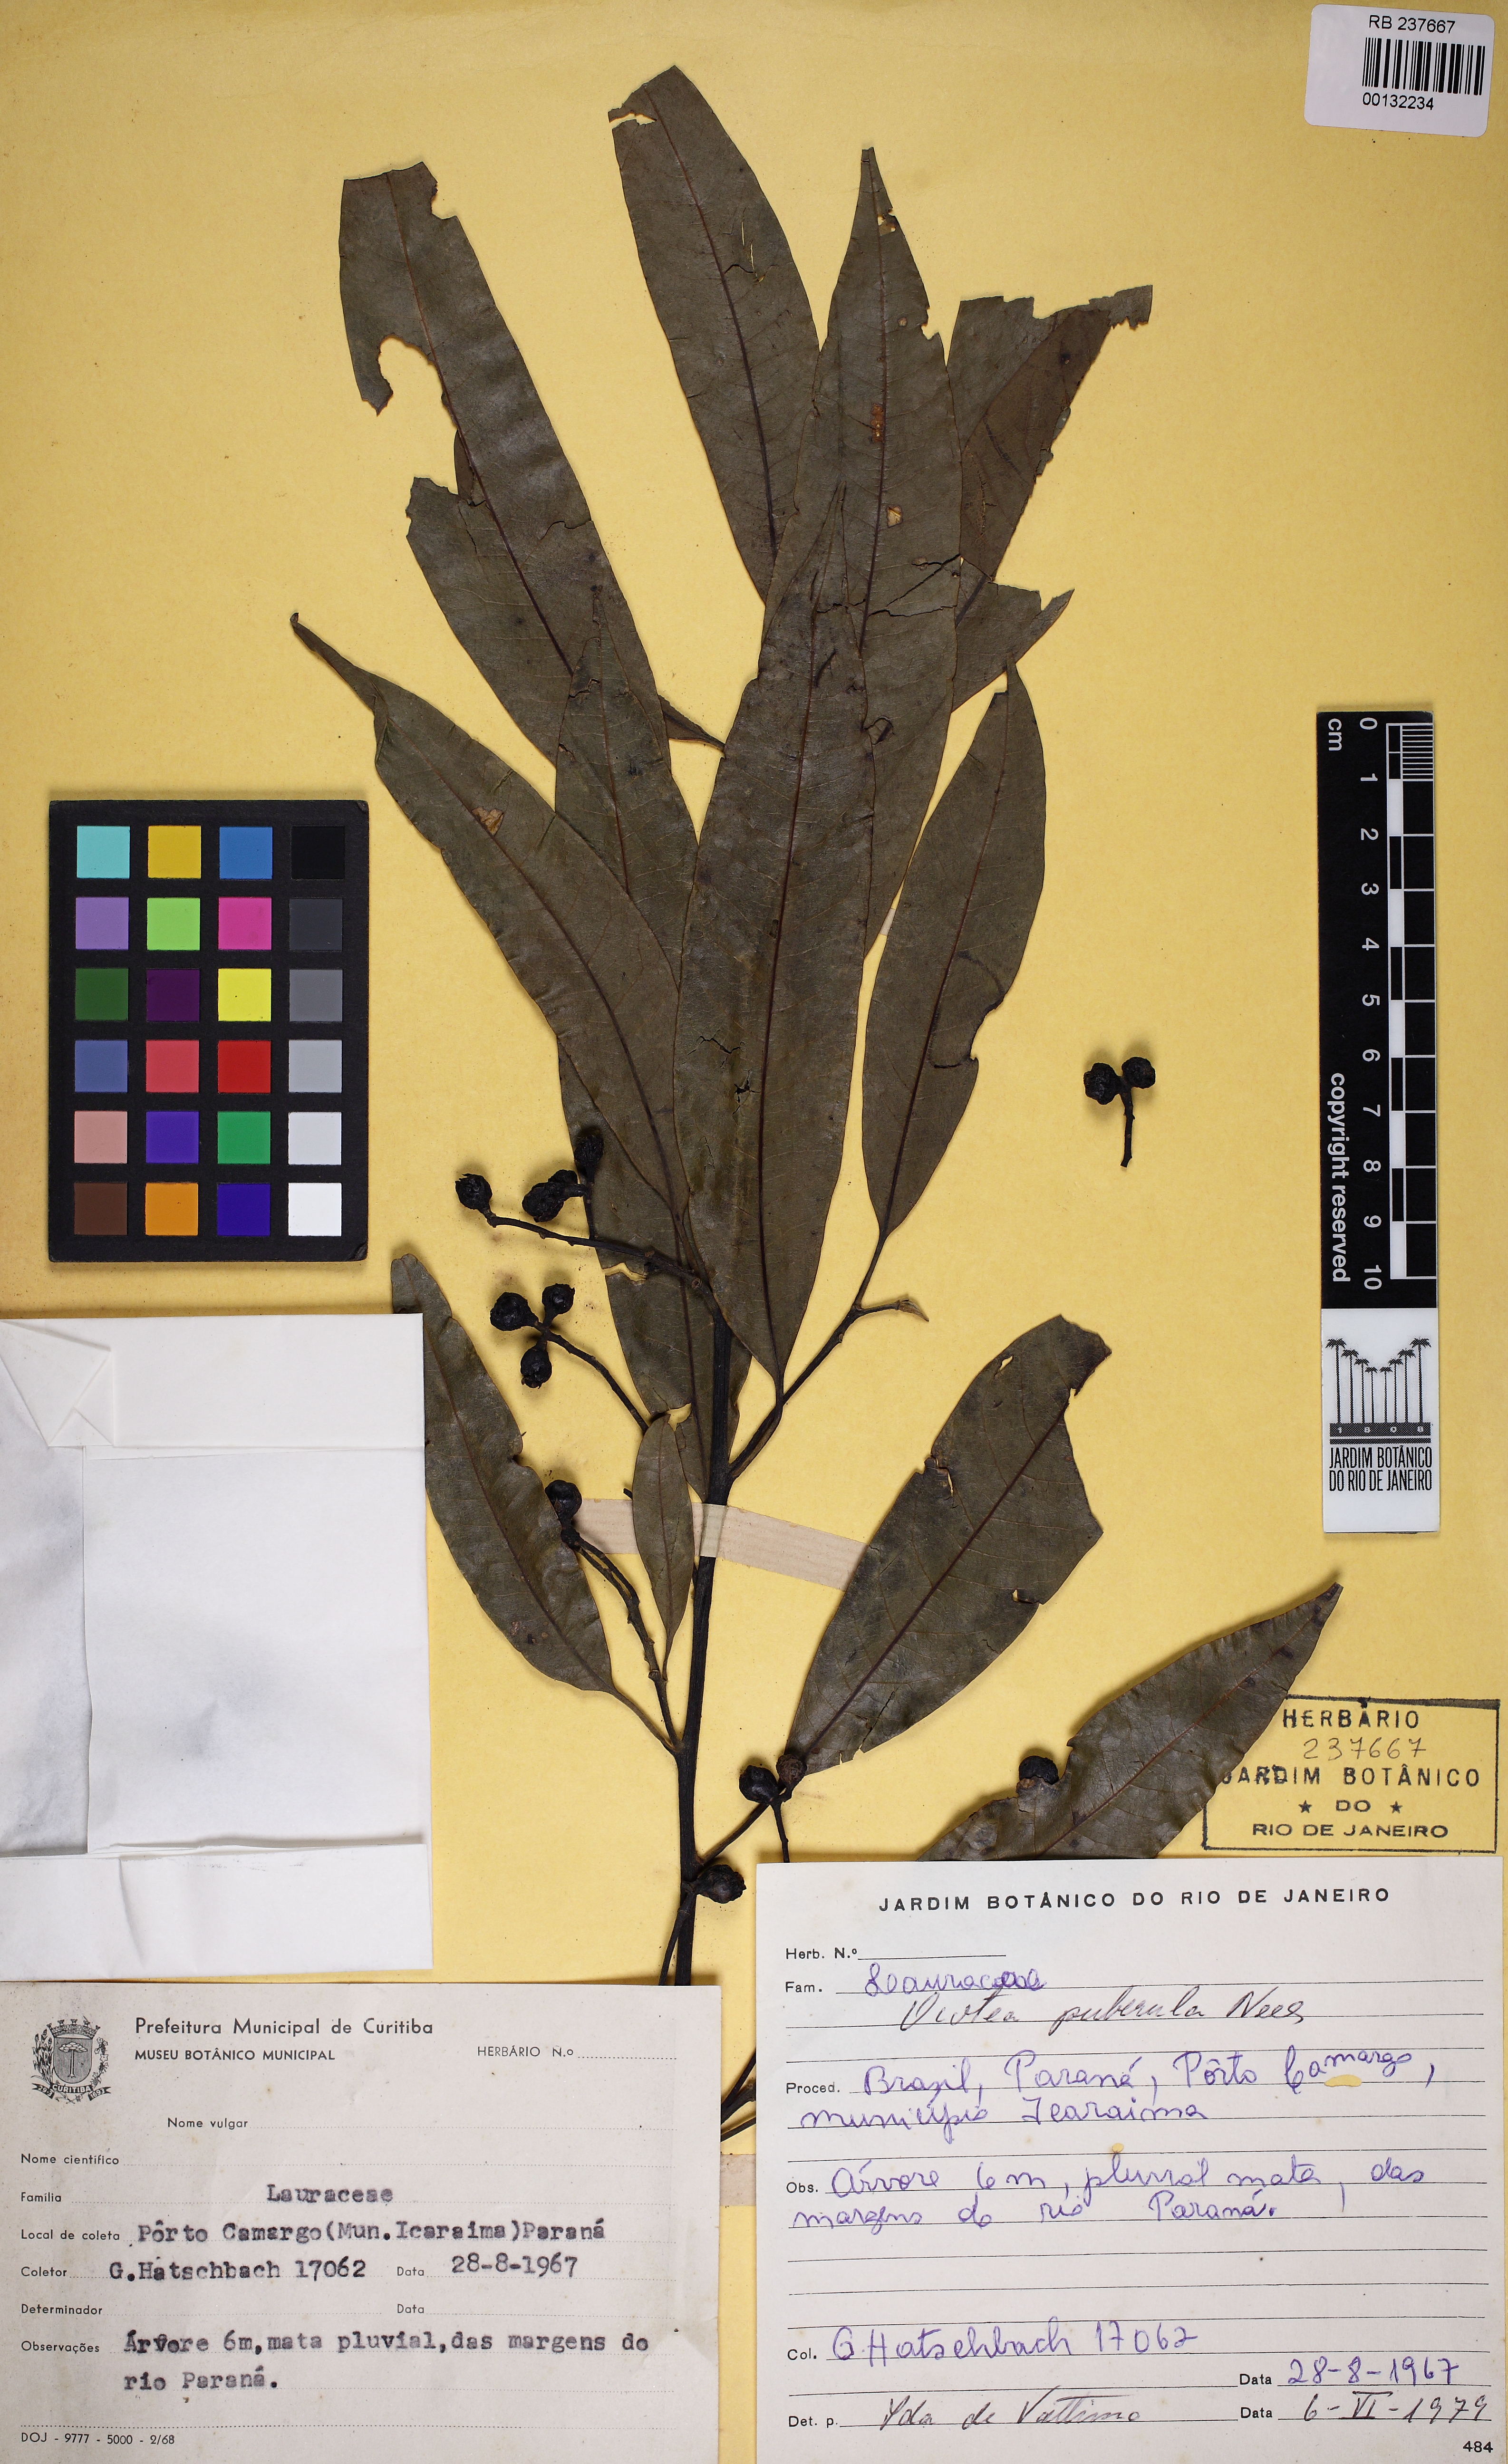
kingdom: Plantae
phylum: Tracheophyta
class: Magnoliopsida
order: Laurales
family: Lauraceae
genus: Ocotea
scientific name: Ocotea puberula
